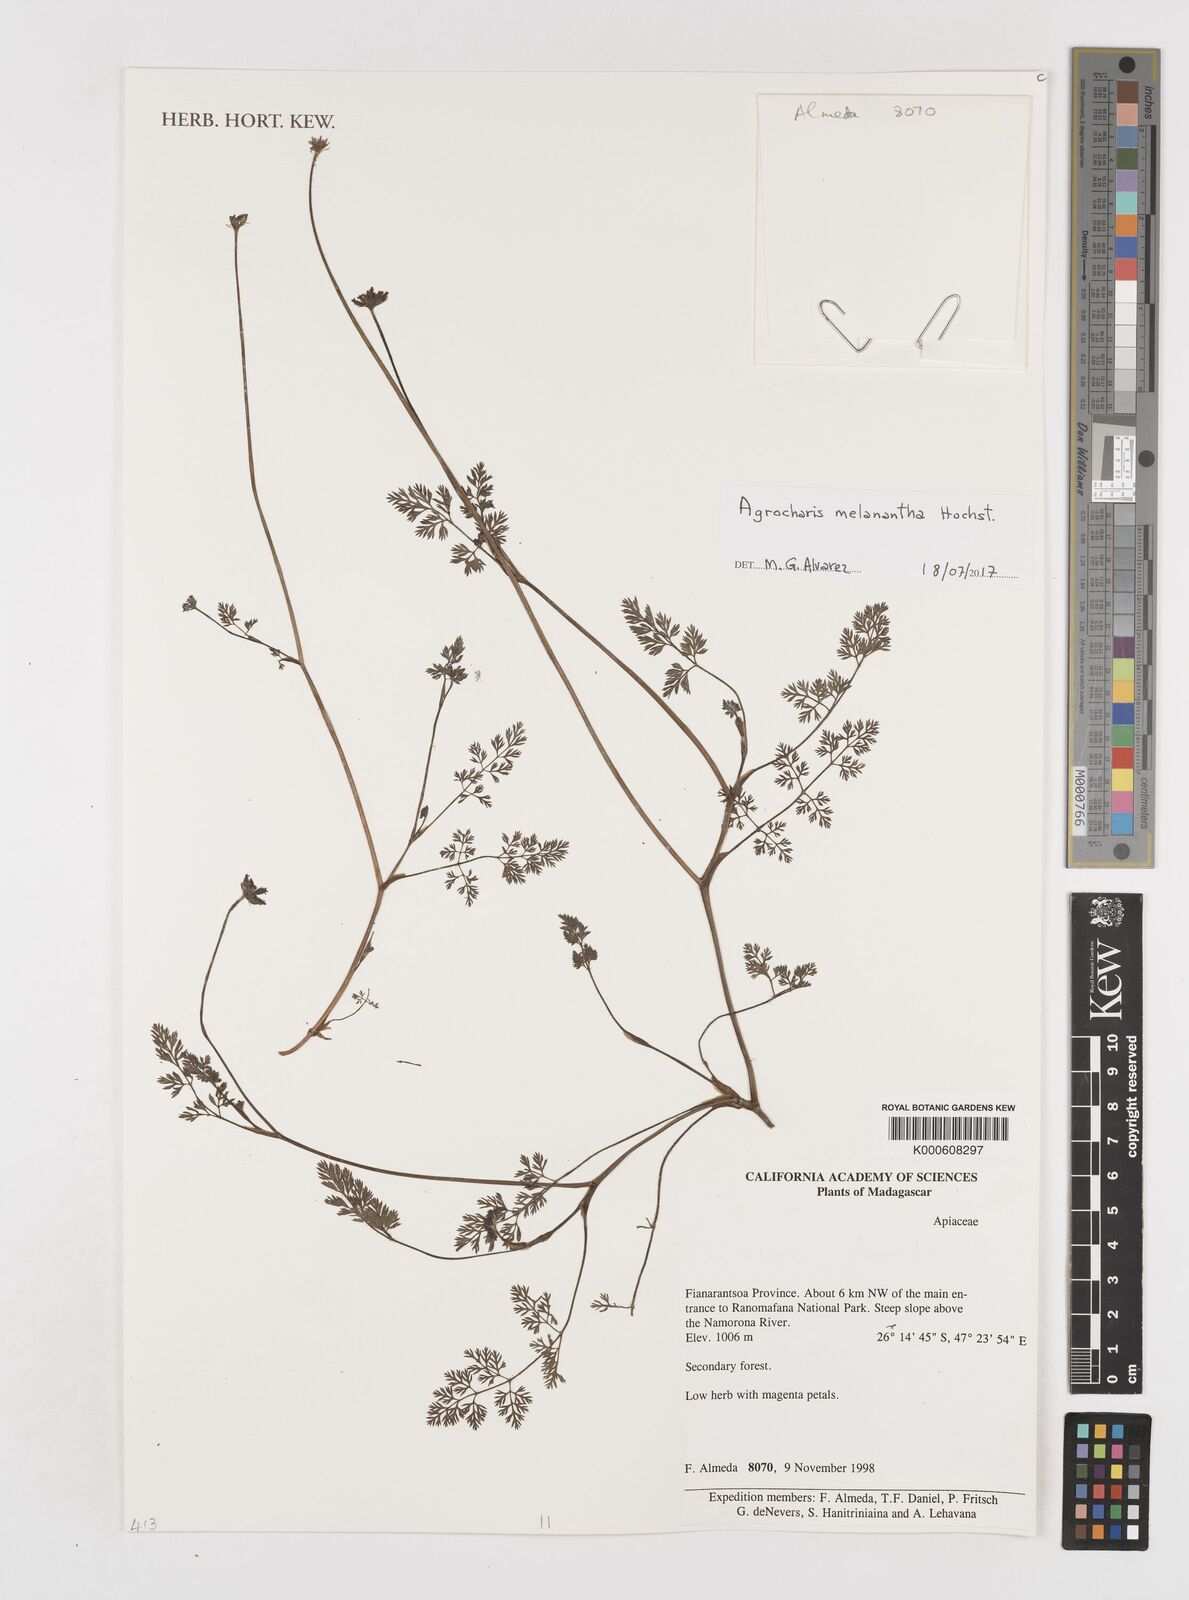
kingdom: Plantae
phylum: Tracheophyta
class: Magnoliopsida
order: Apiales
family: Apiaceae
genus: Daucus
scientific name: Daucus melananthus
